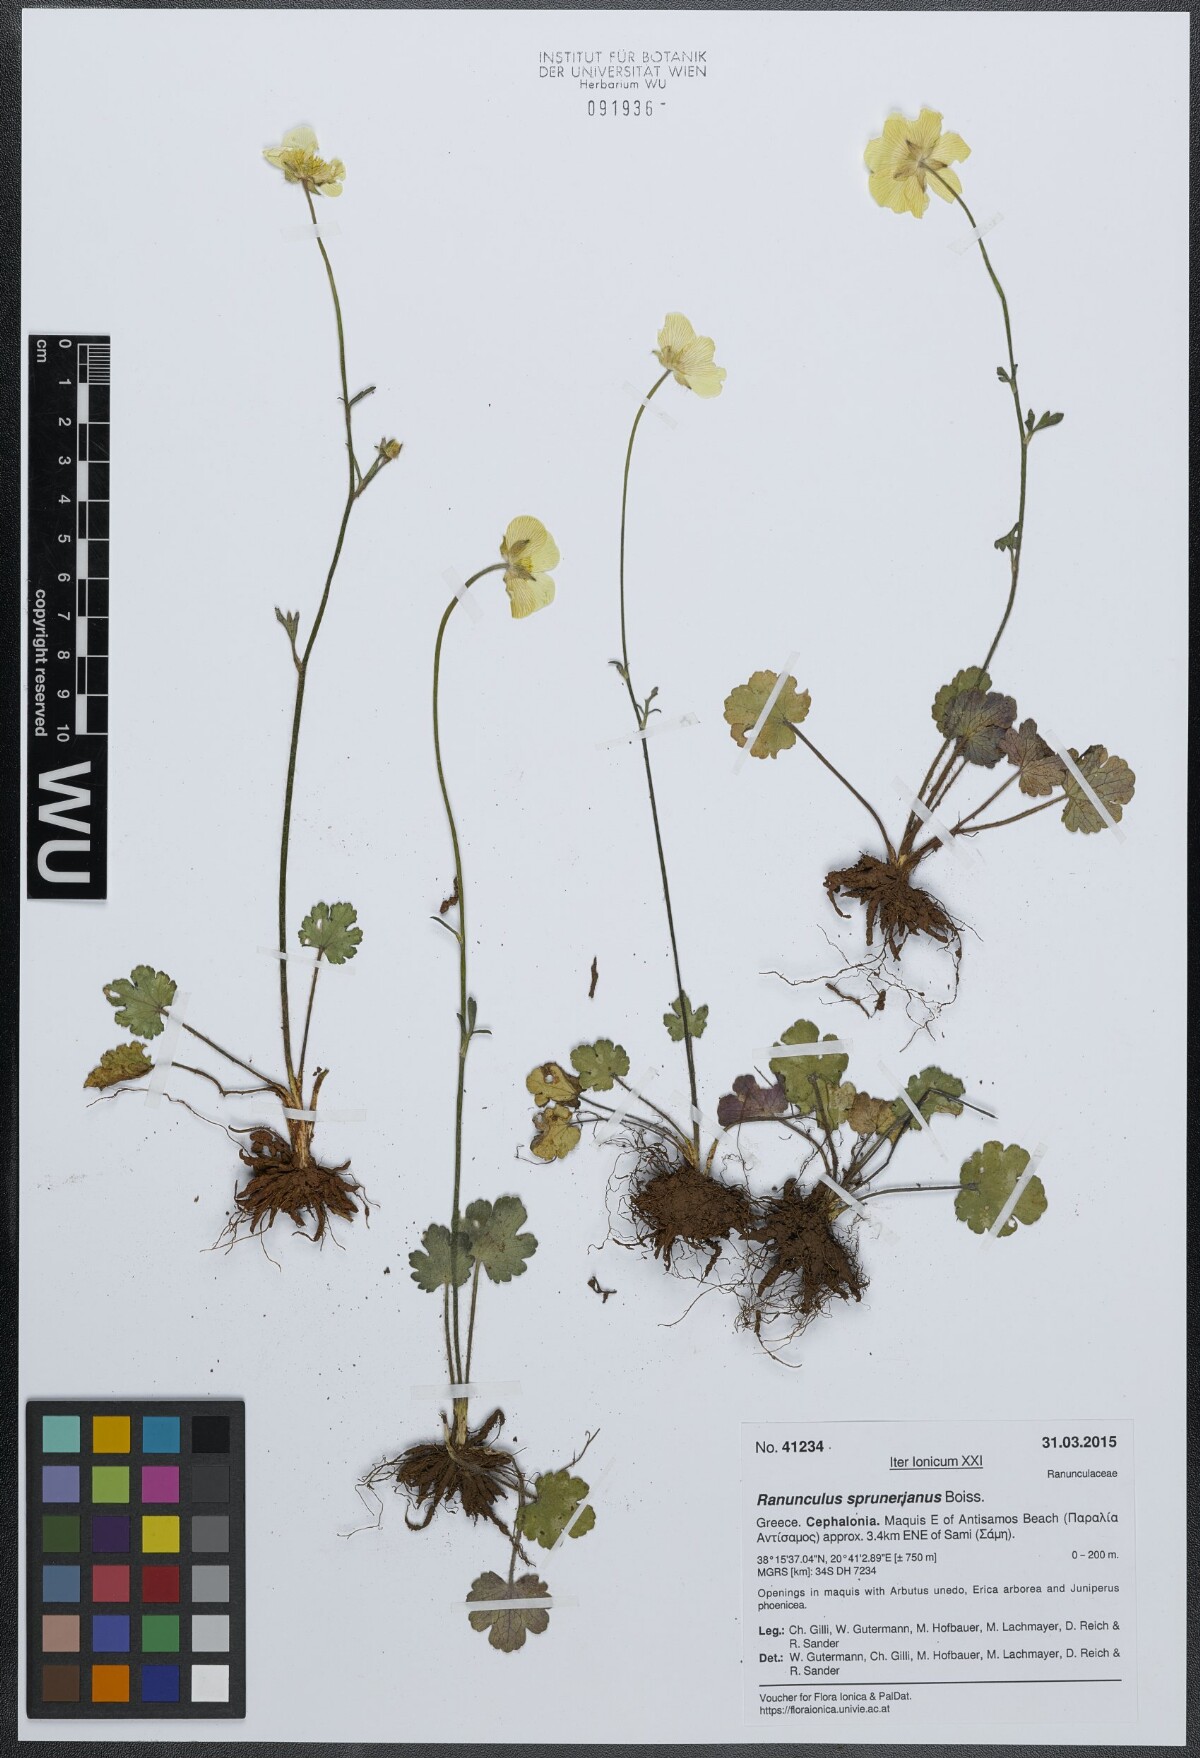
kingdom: Plantae
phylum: Tracheophyta
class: Magnoliopsida
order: Ranunculales
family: Ranunculaceae
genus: Ranunculus
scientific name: Ranunculus sprunerianus
